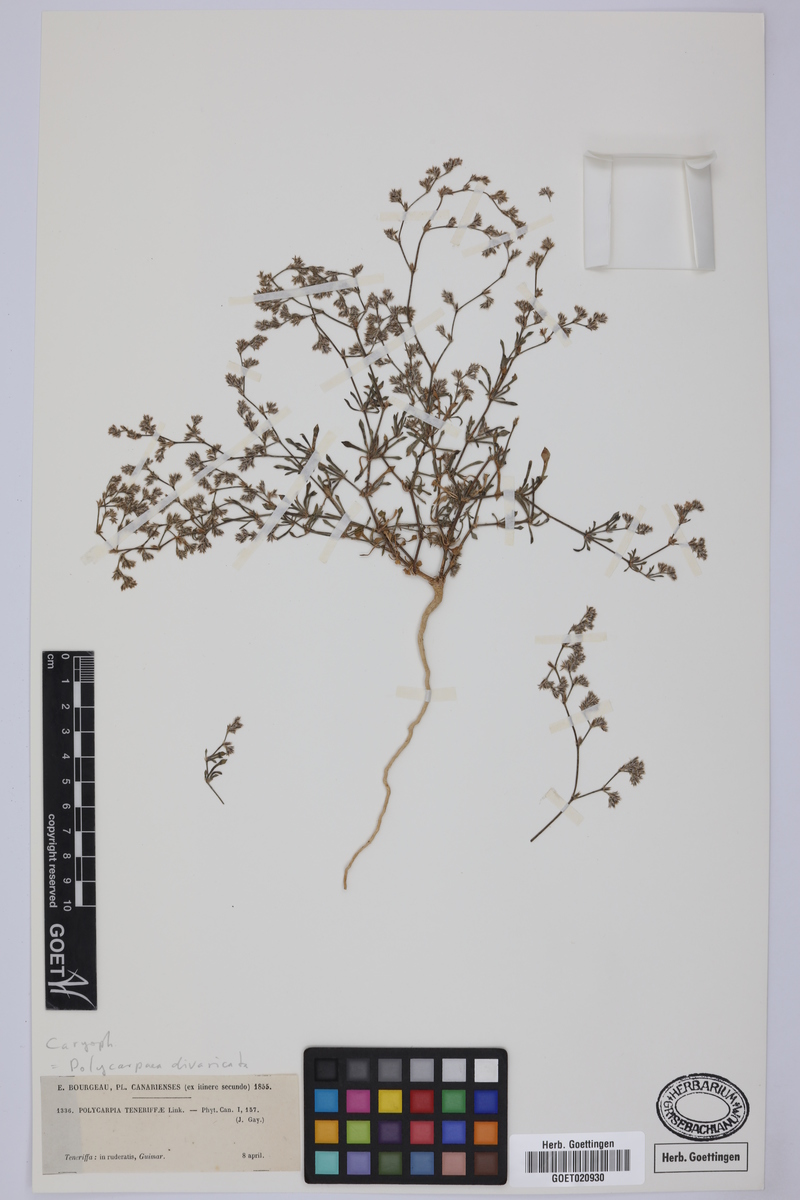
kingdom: Plantae
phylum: Tracheophyta
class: Magnoliopsida
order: Caryophyllales
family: Caryophyllaceae
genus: Polycarpaea
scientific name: Polycarpaea divaricata
